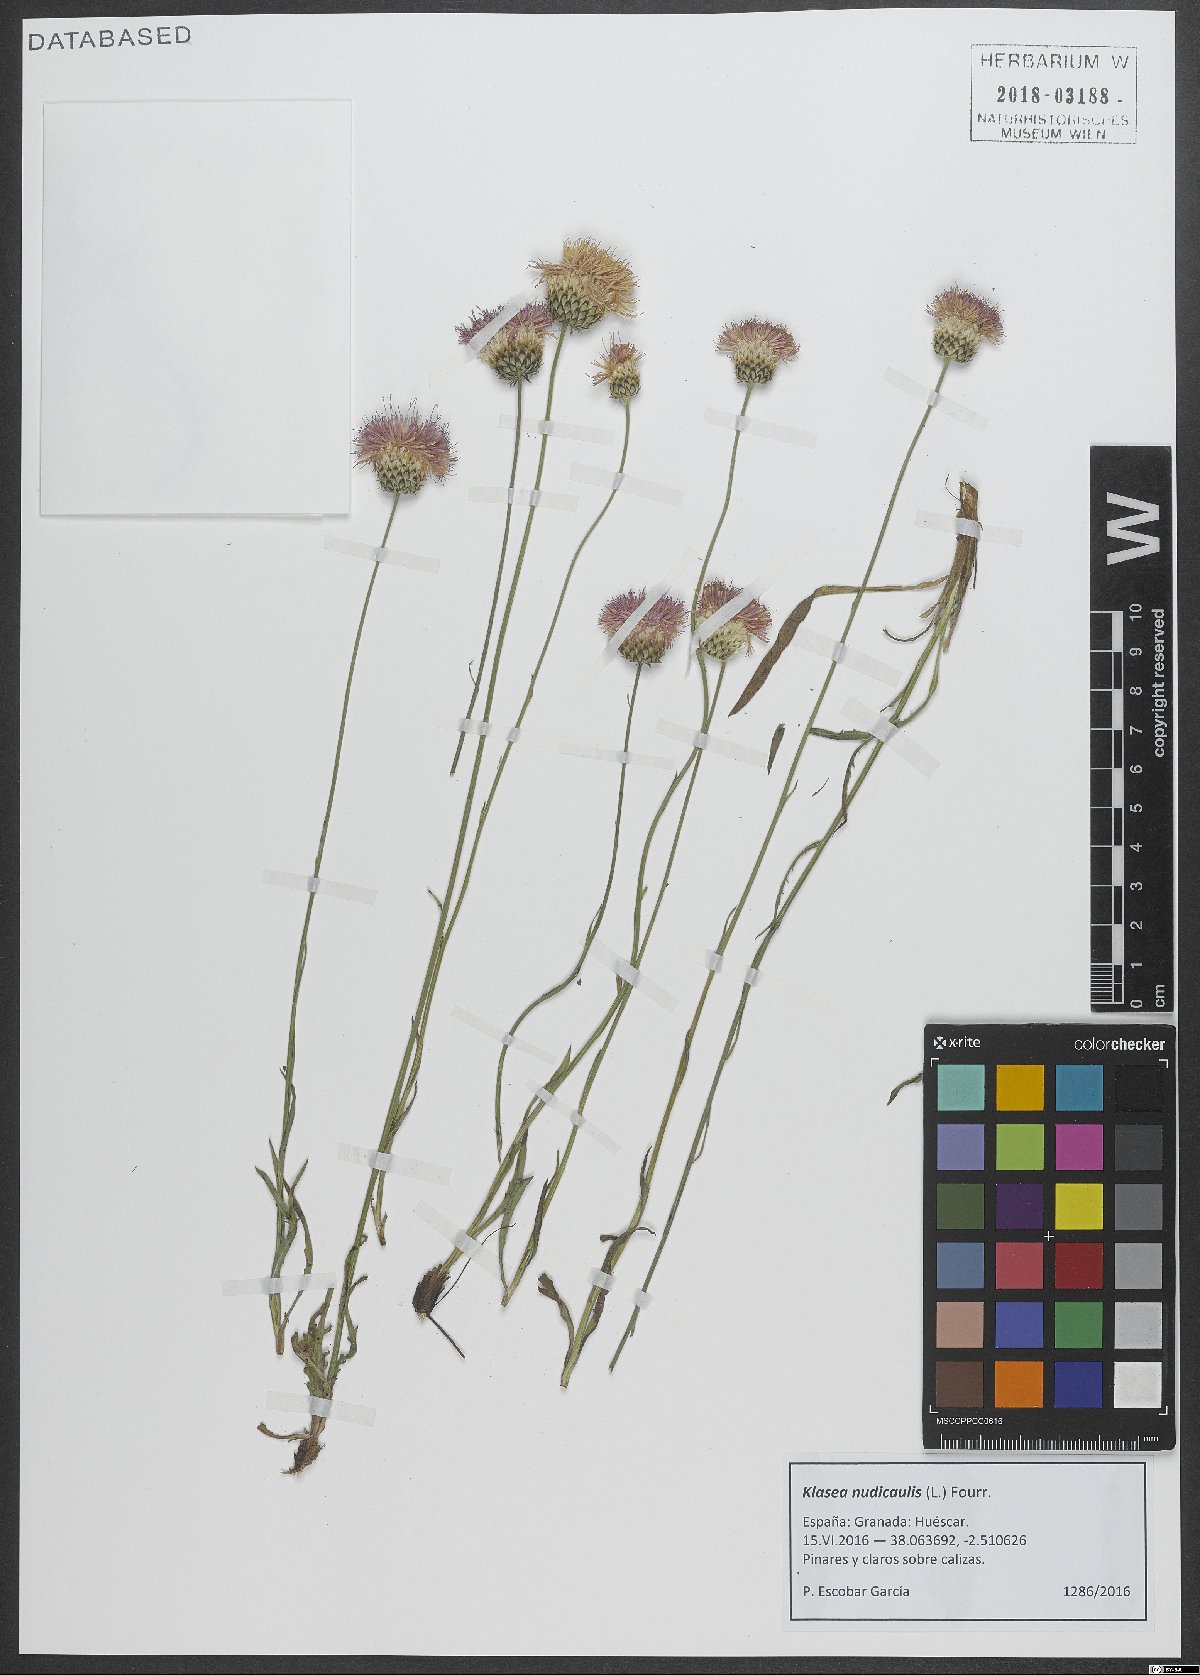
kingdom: Plantae
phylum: Tracheophyta
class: Magnoliopsida
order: Asterales
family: Asteraceae
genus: Klasea
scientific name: Klasea nudicaulis
